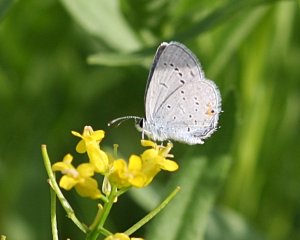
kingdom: Animalia
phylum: Arthropoda
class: Insecta
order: Lepidoptera
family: Lycaenidae
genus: Elkalyce
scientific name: Elkalyce comyntas
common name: Eastern Tailed-Blue
